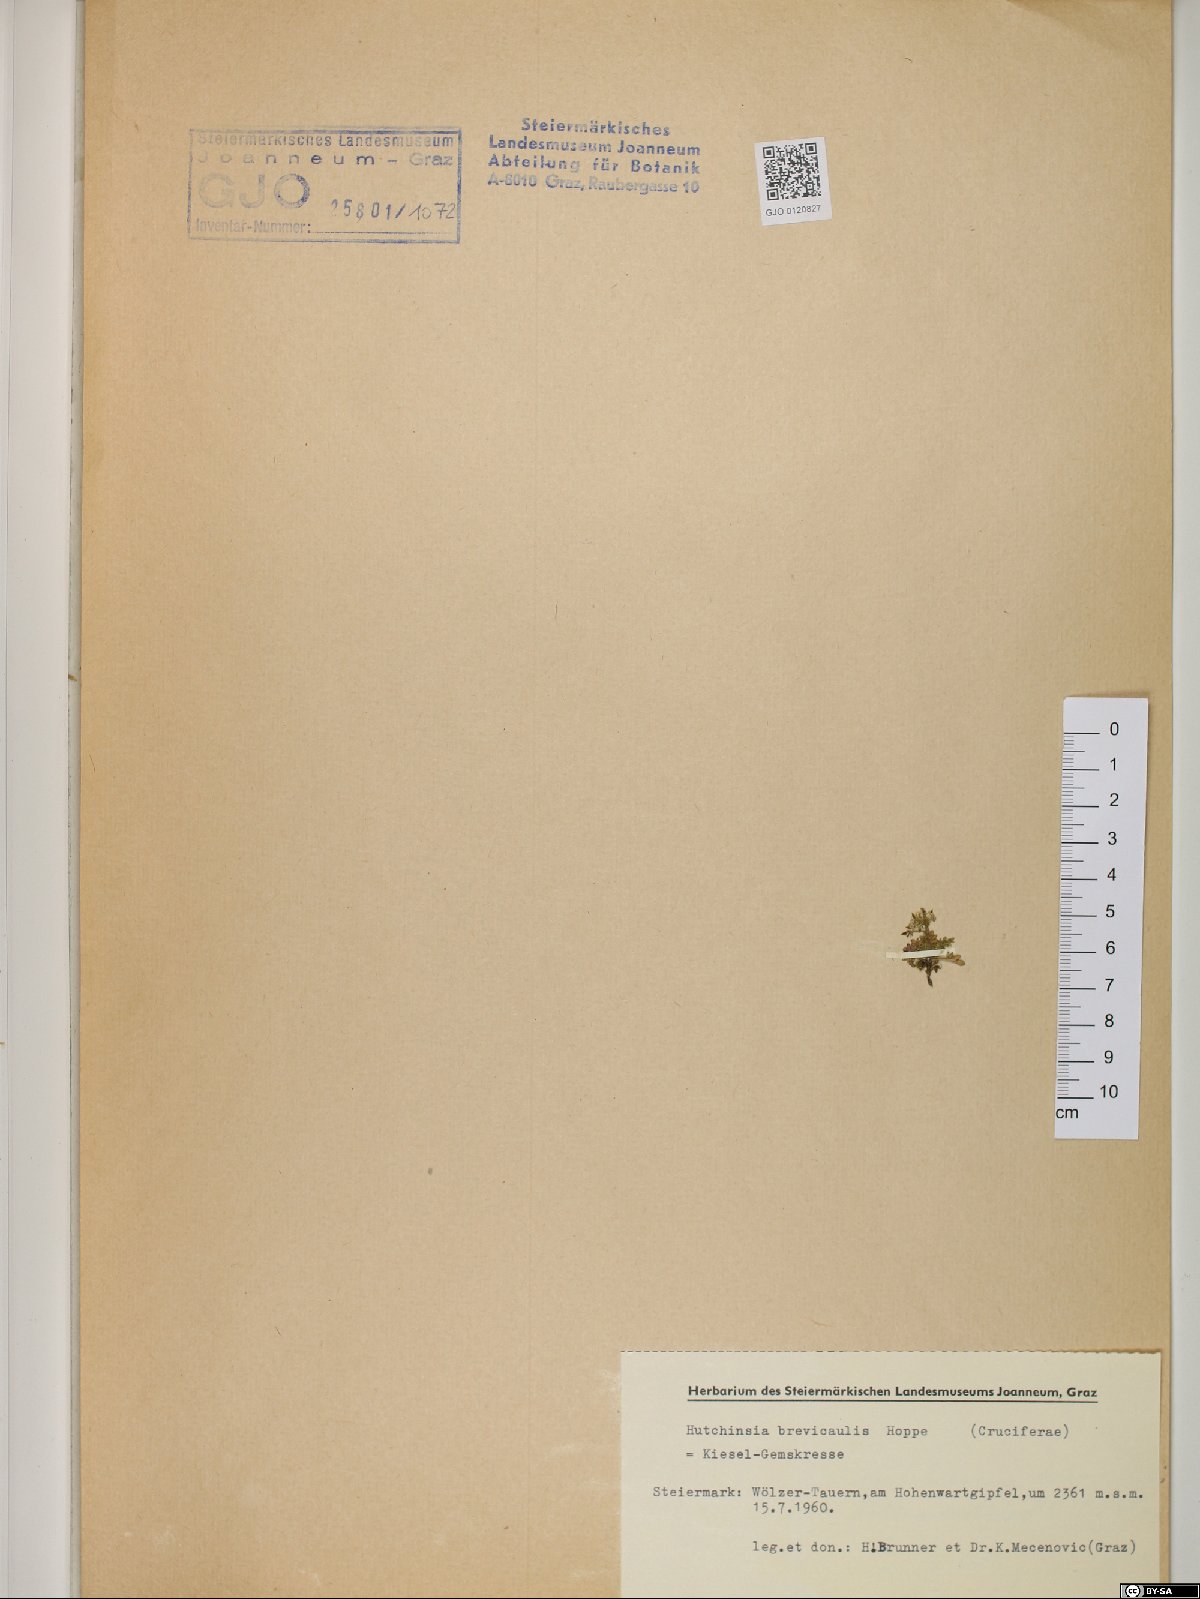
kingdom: Plantae
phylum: Tracheophyta
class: Magnoliopsida
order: Brassicales
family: Brassicaceae
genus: Hornungia
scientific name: Hornungia alpina
